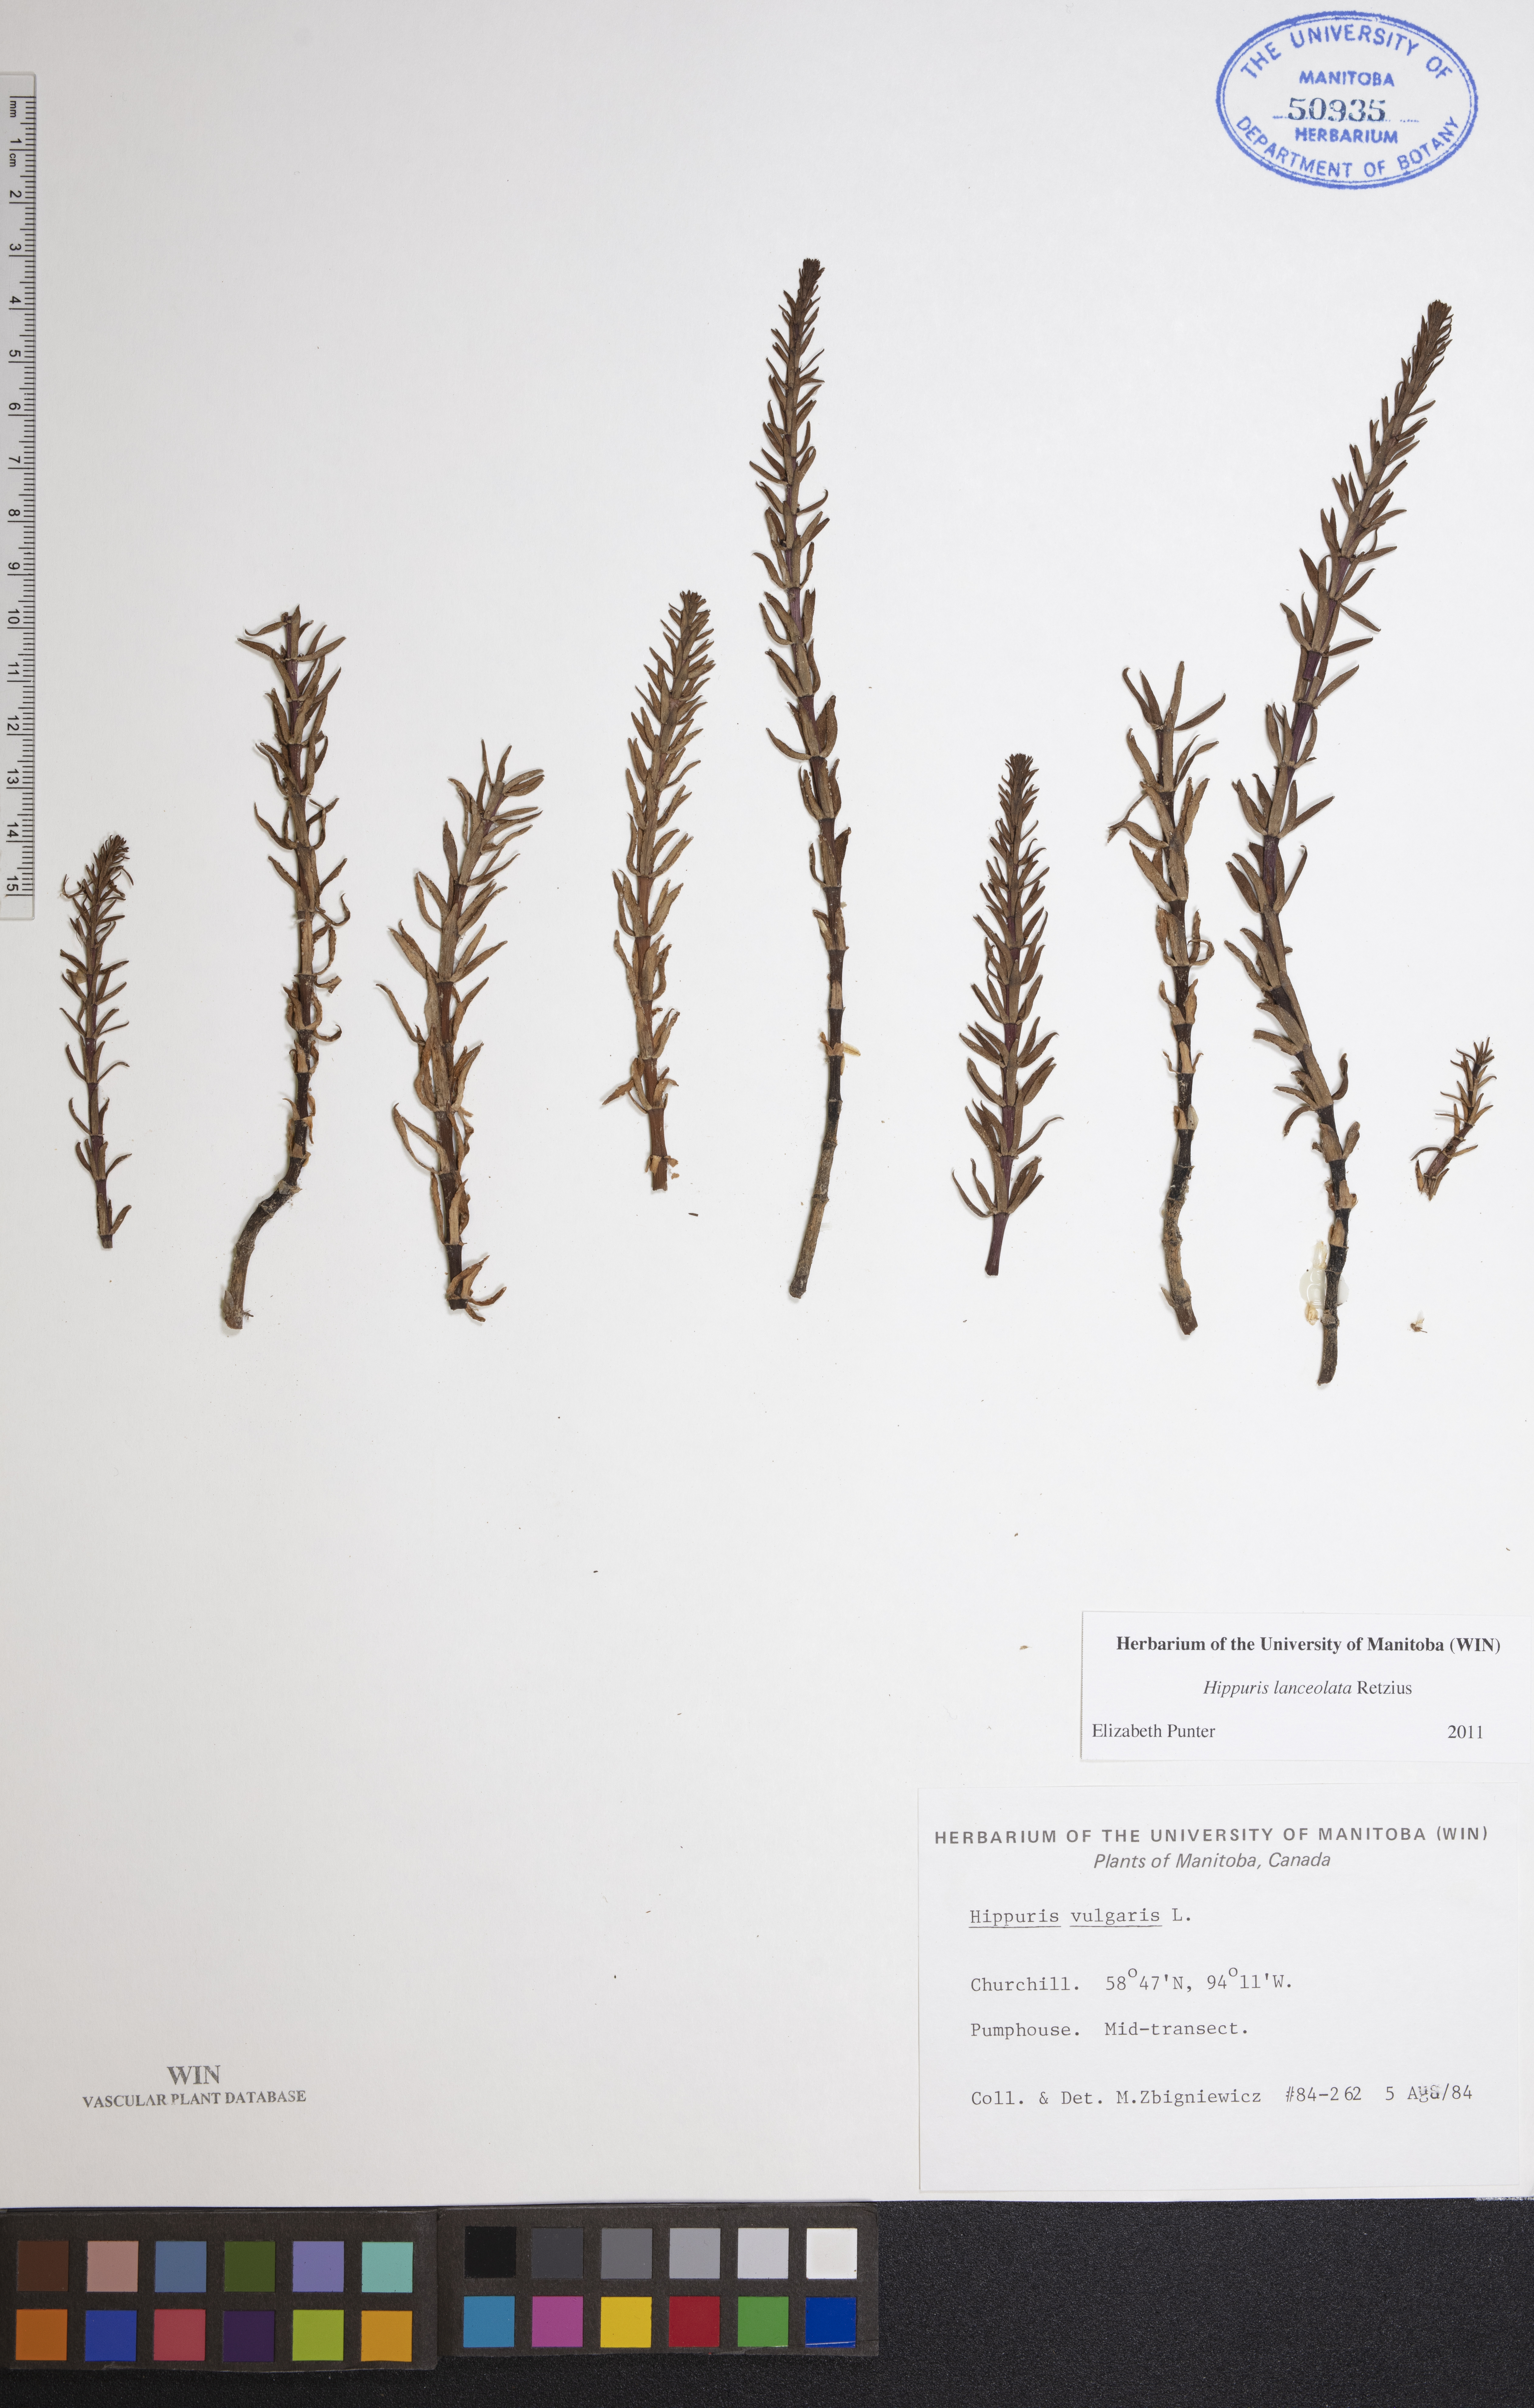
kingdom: Plantae
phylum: Tracheophyta
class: Magnoliopsida
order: Lamiales
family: Plantaginaceae
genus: Hippuris
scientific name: Hippuris lanceolata
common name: Lance-leaved mare's-tail
